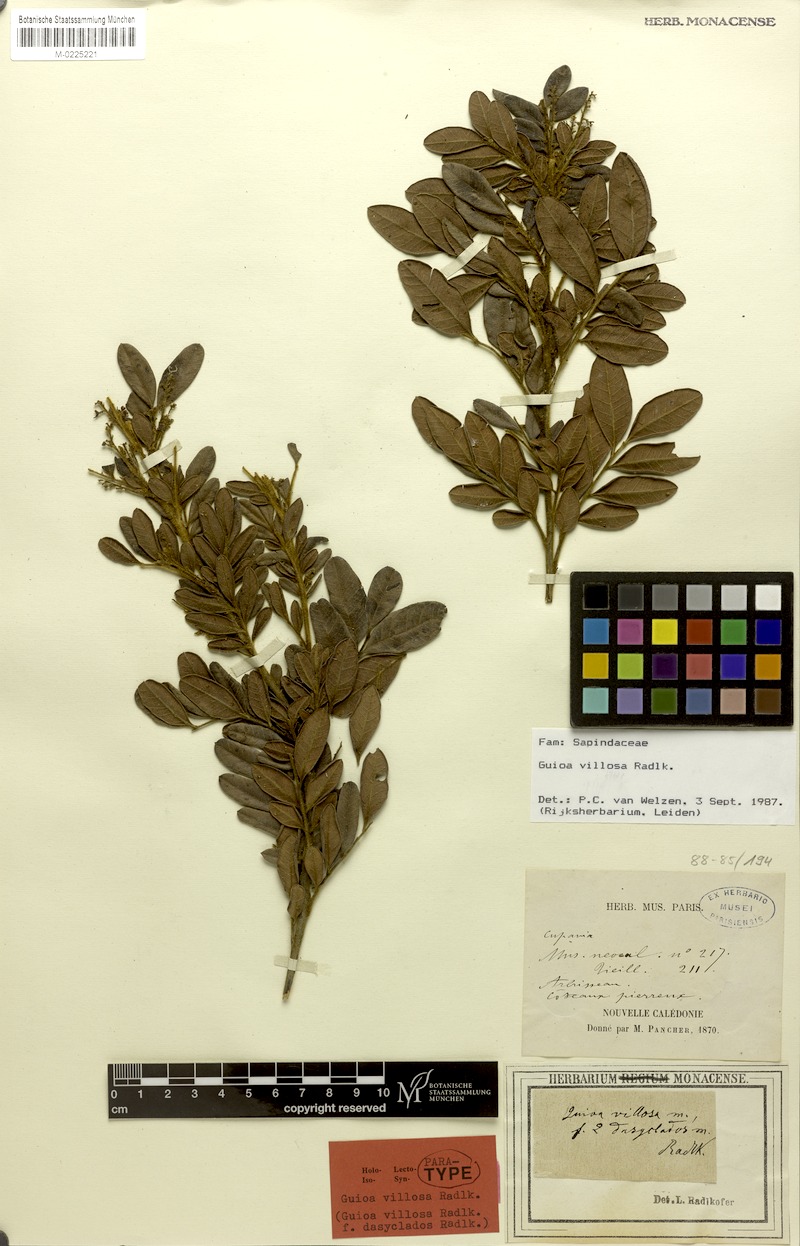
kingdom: Plantae
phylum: Tracheophyta
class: Magnoliopsida
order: Sapindales
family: Sapindaceae
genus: Guioa
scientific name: Guioa villosa
